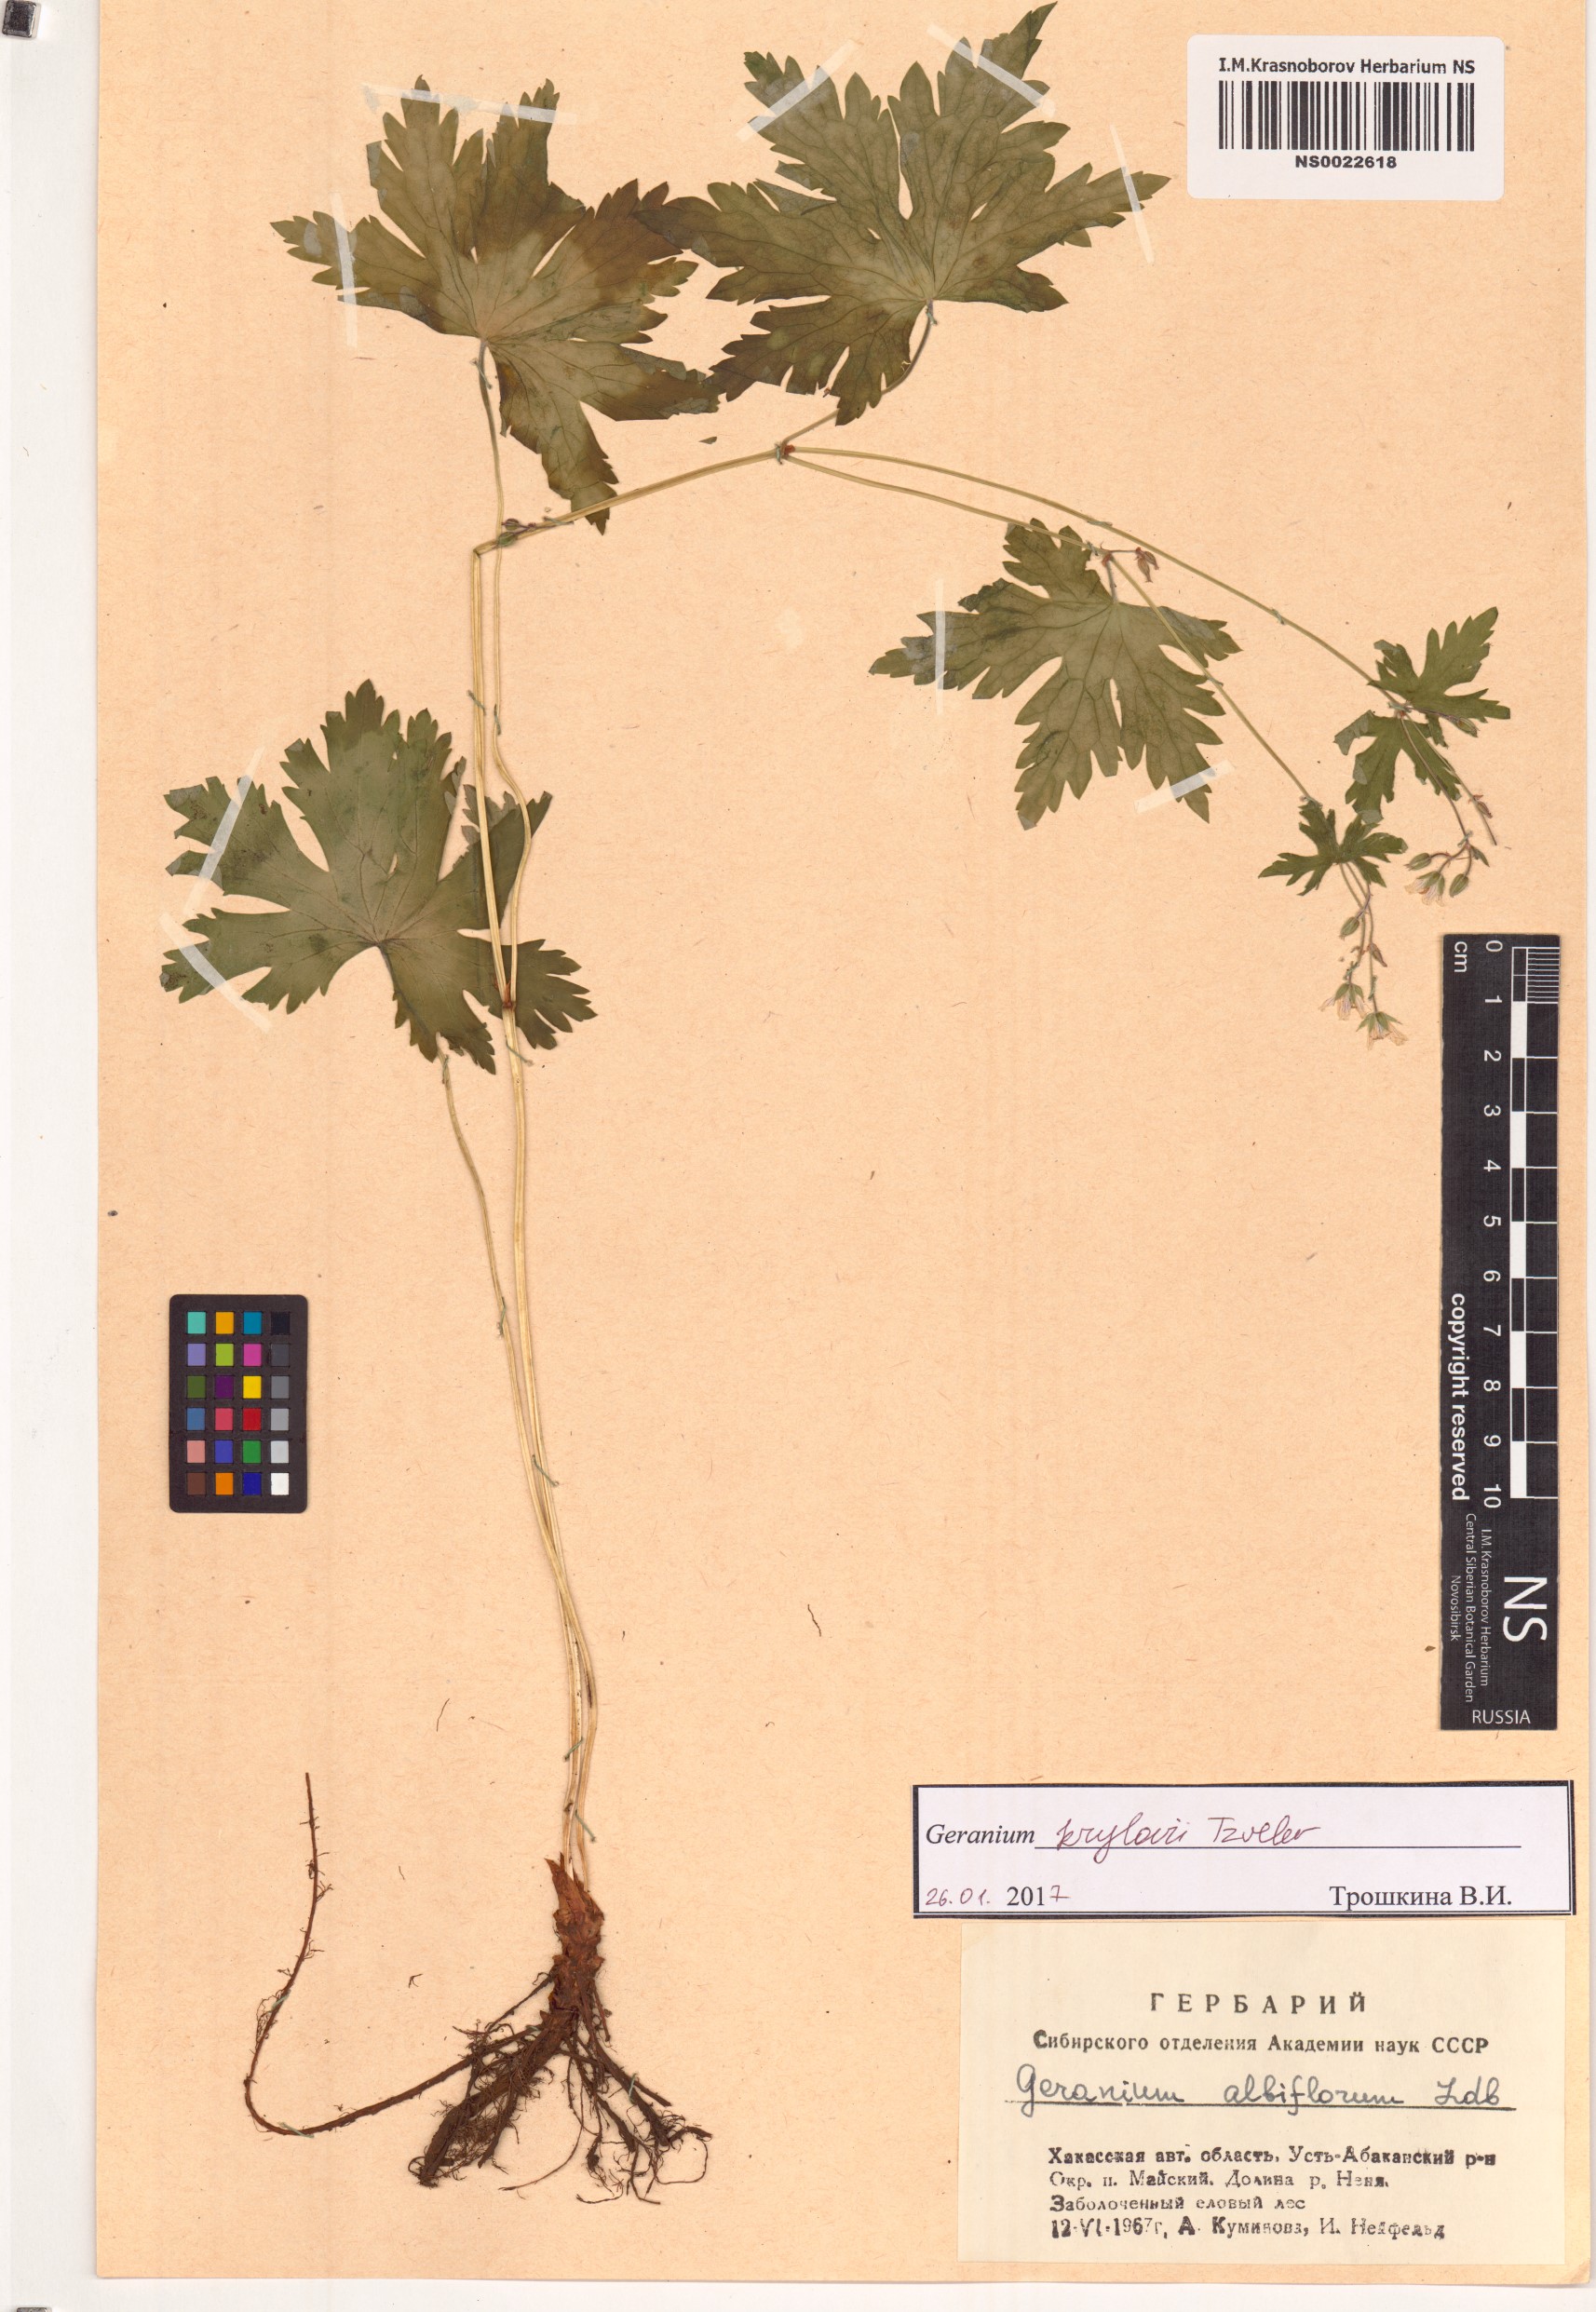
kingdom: Plantae
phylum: Tracheophyta
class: Magnoliopsida
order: Geraniales
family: Geraniaceae
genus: Geranium
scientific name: Geranium sylvaticum
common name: Wood crane's-bill
